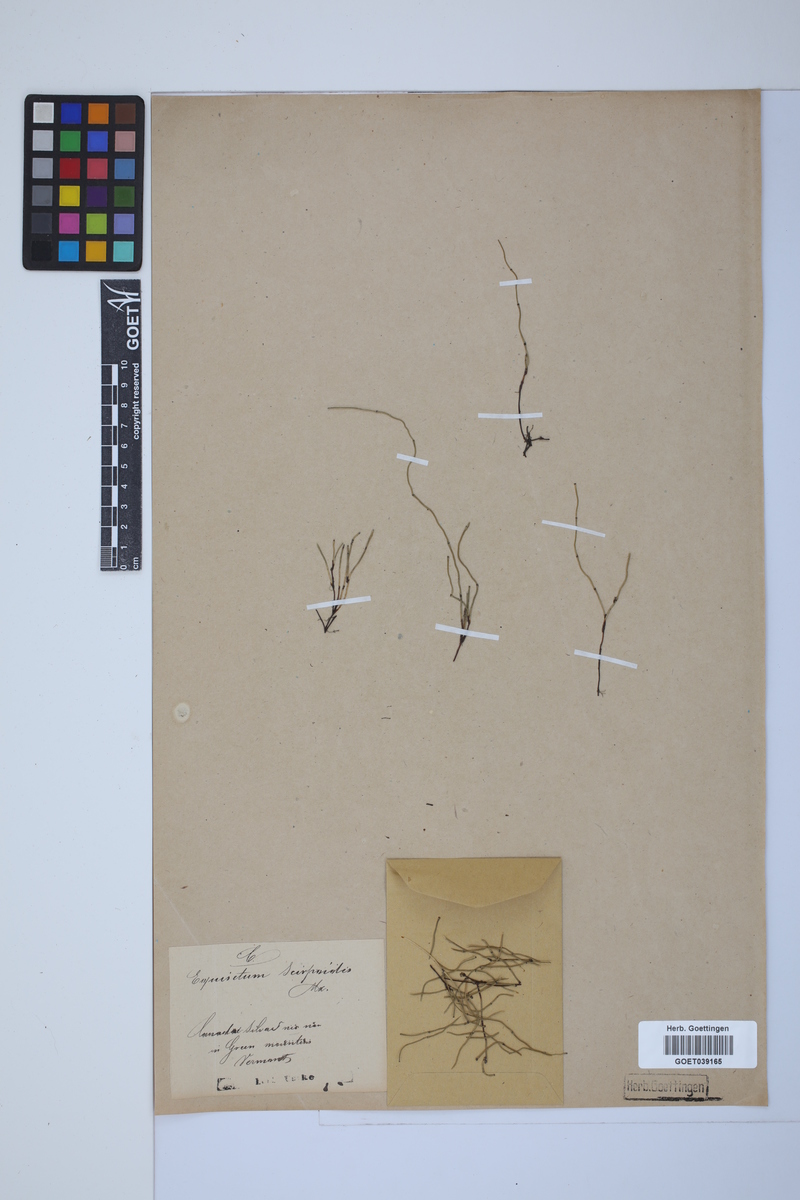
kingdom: Plantae
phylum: Tracheophyta
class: Polypodiopsida
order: Equisetales
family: Equisetaceae
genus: Equisetum
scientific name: Equisetum scirpoides
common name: Delicate horsetail
